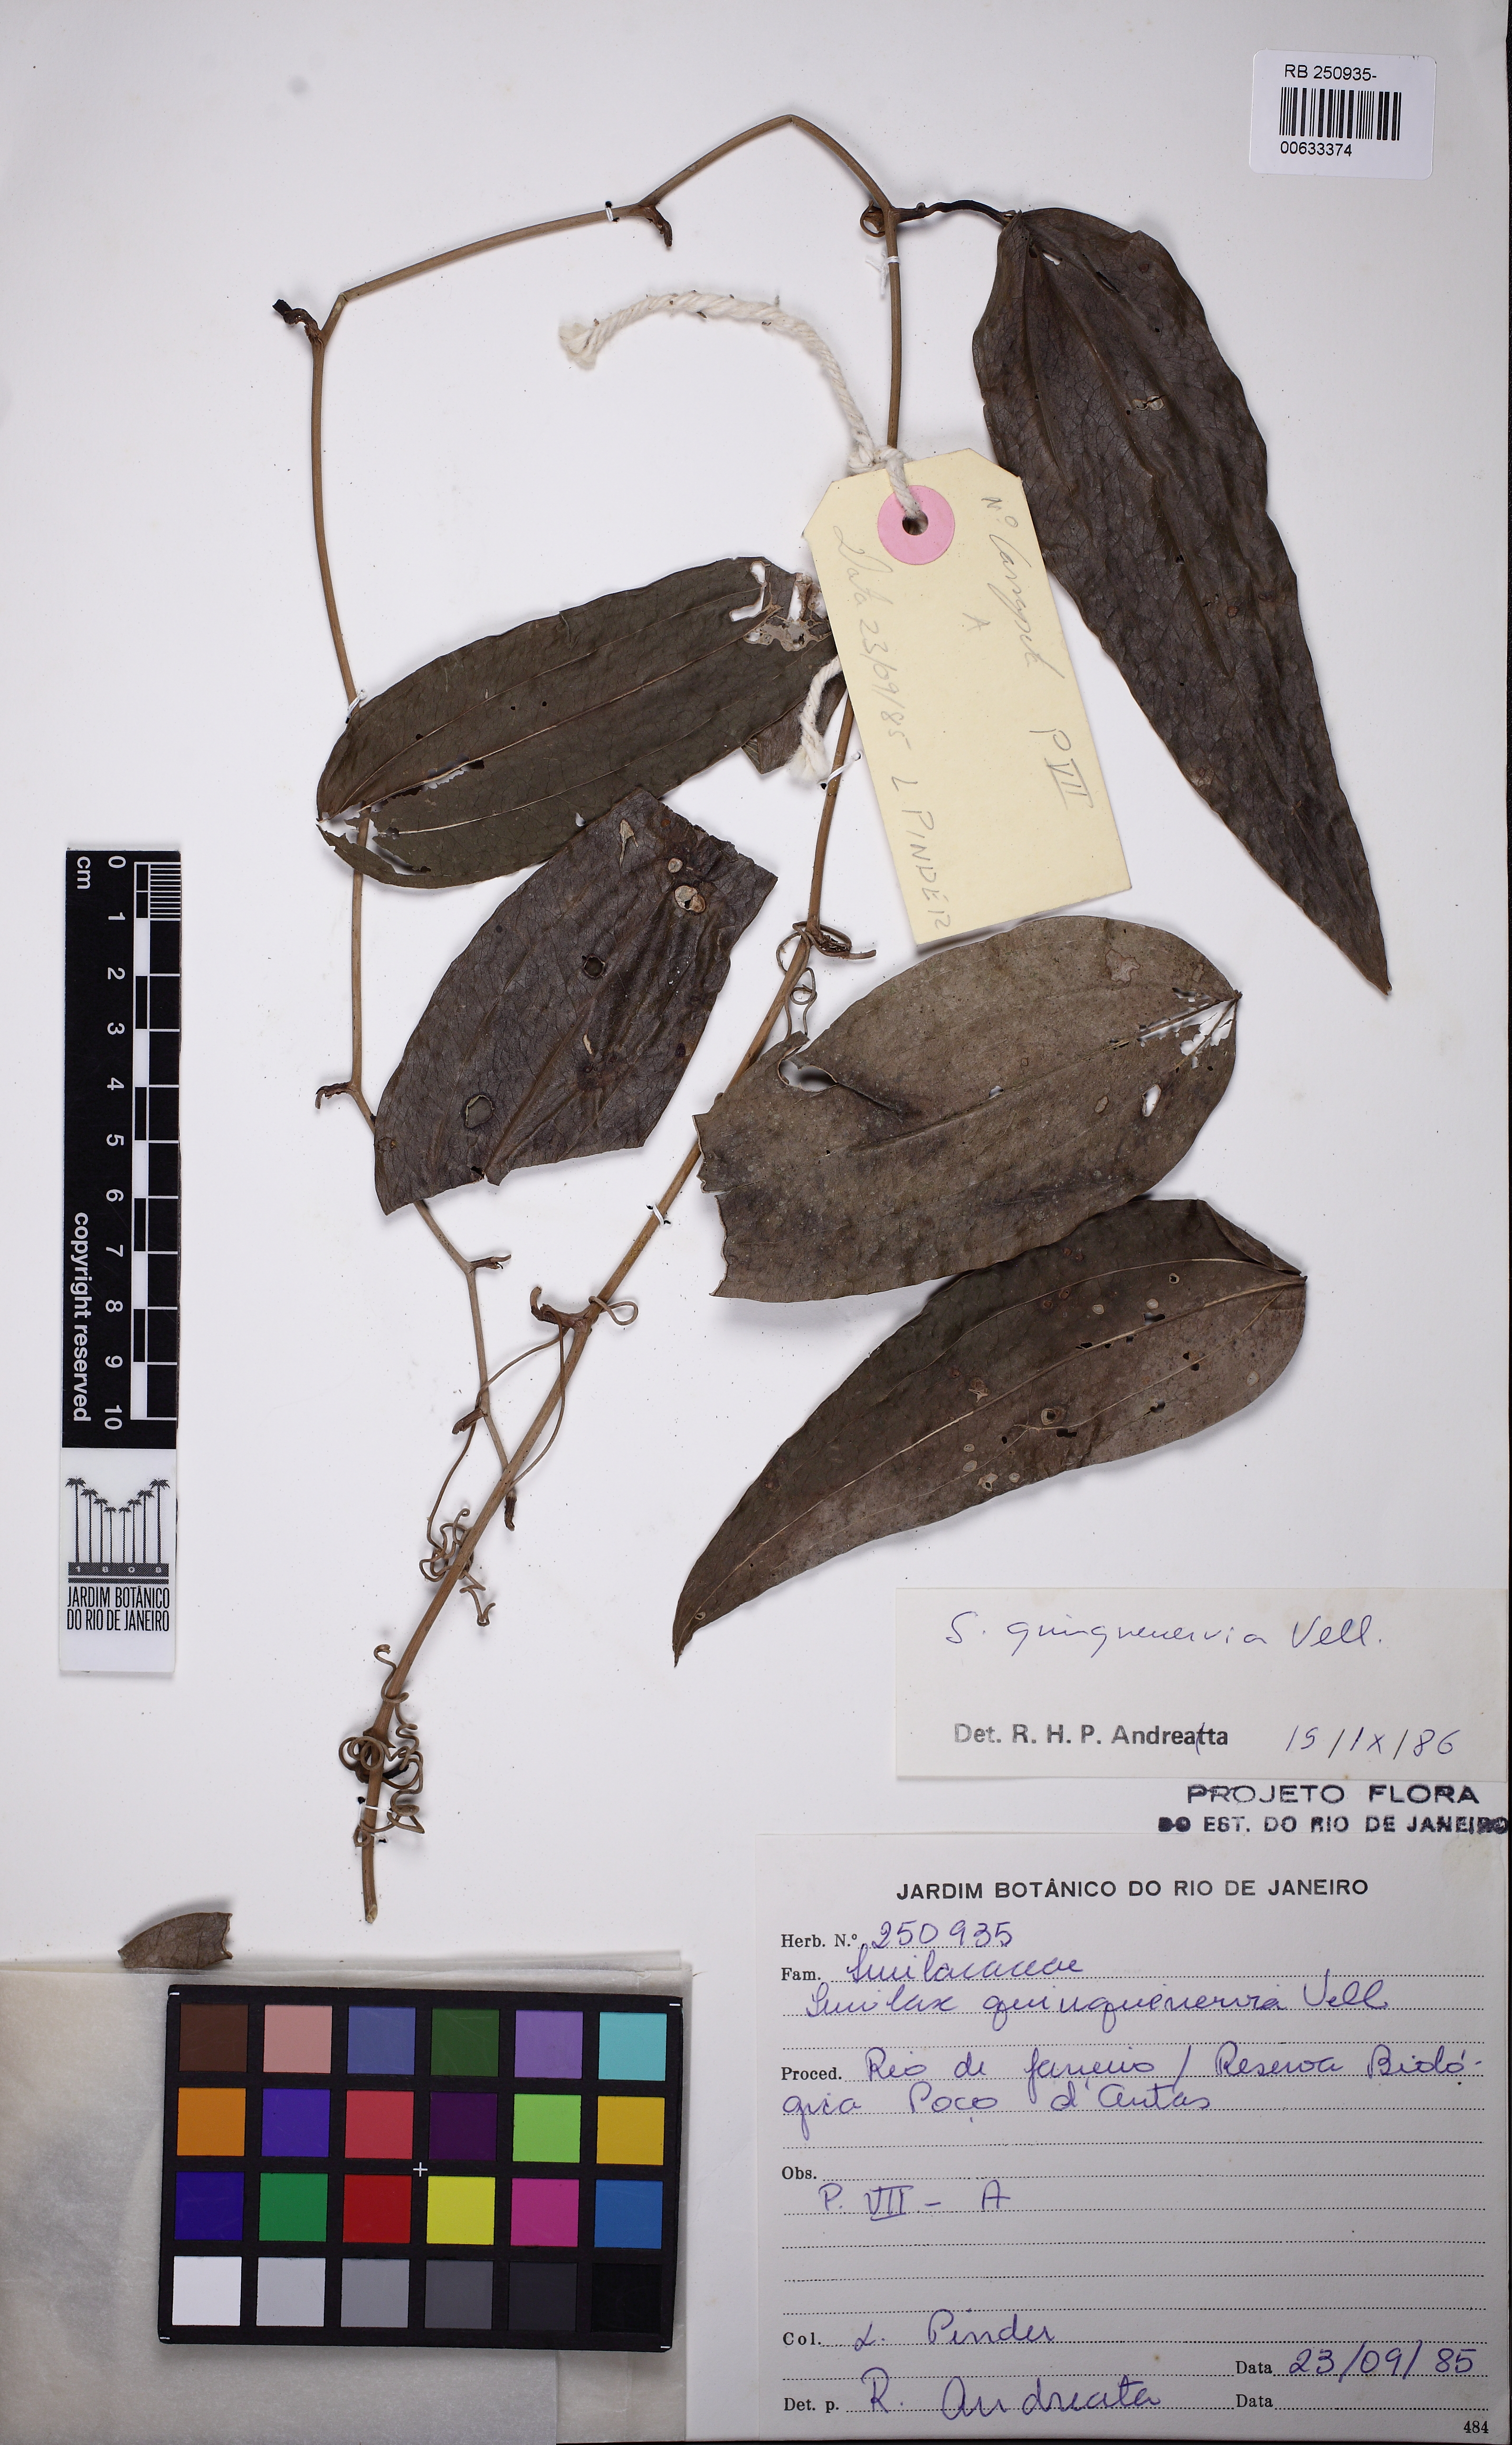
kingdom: Plantae
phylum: Tracheophyta
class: Liliopsida
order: Liliales
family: Smilacaceae
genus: Smilax
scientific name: Smilax quinquenervia
